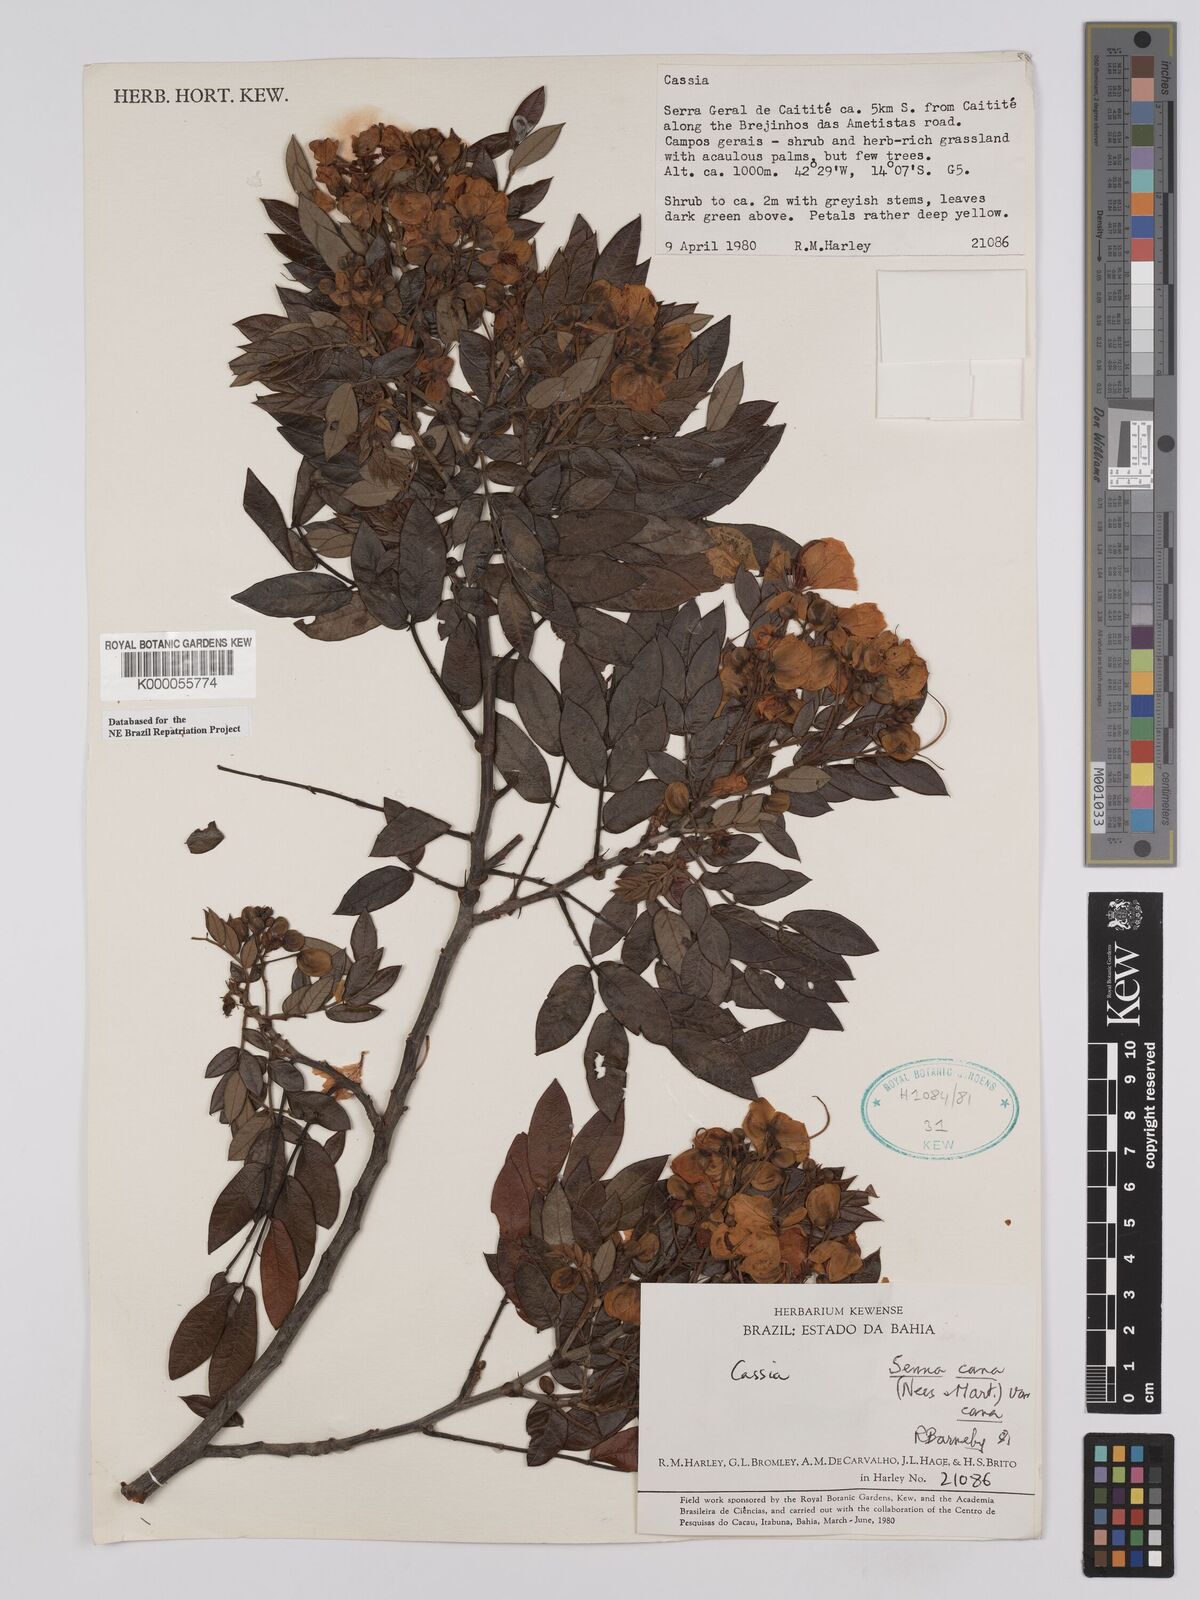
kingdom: Plantae
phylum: Tracheophyta
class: Magnoliopsida
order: Fabales
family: Fabaceae
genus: Senna
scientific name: Senna cana
